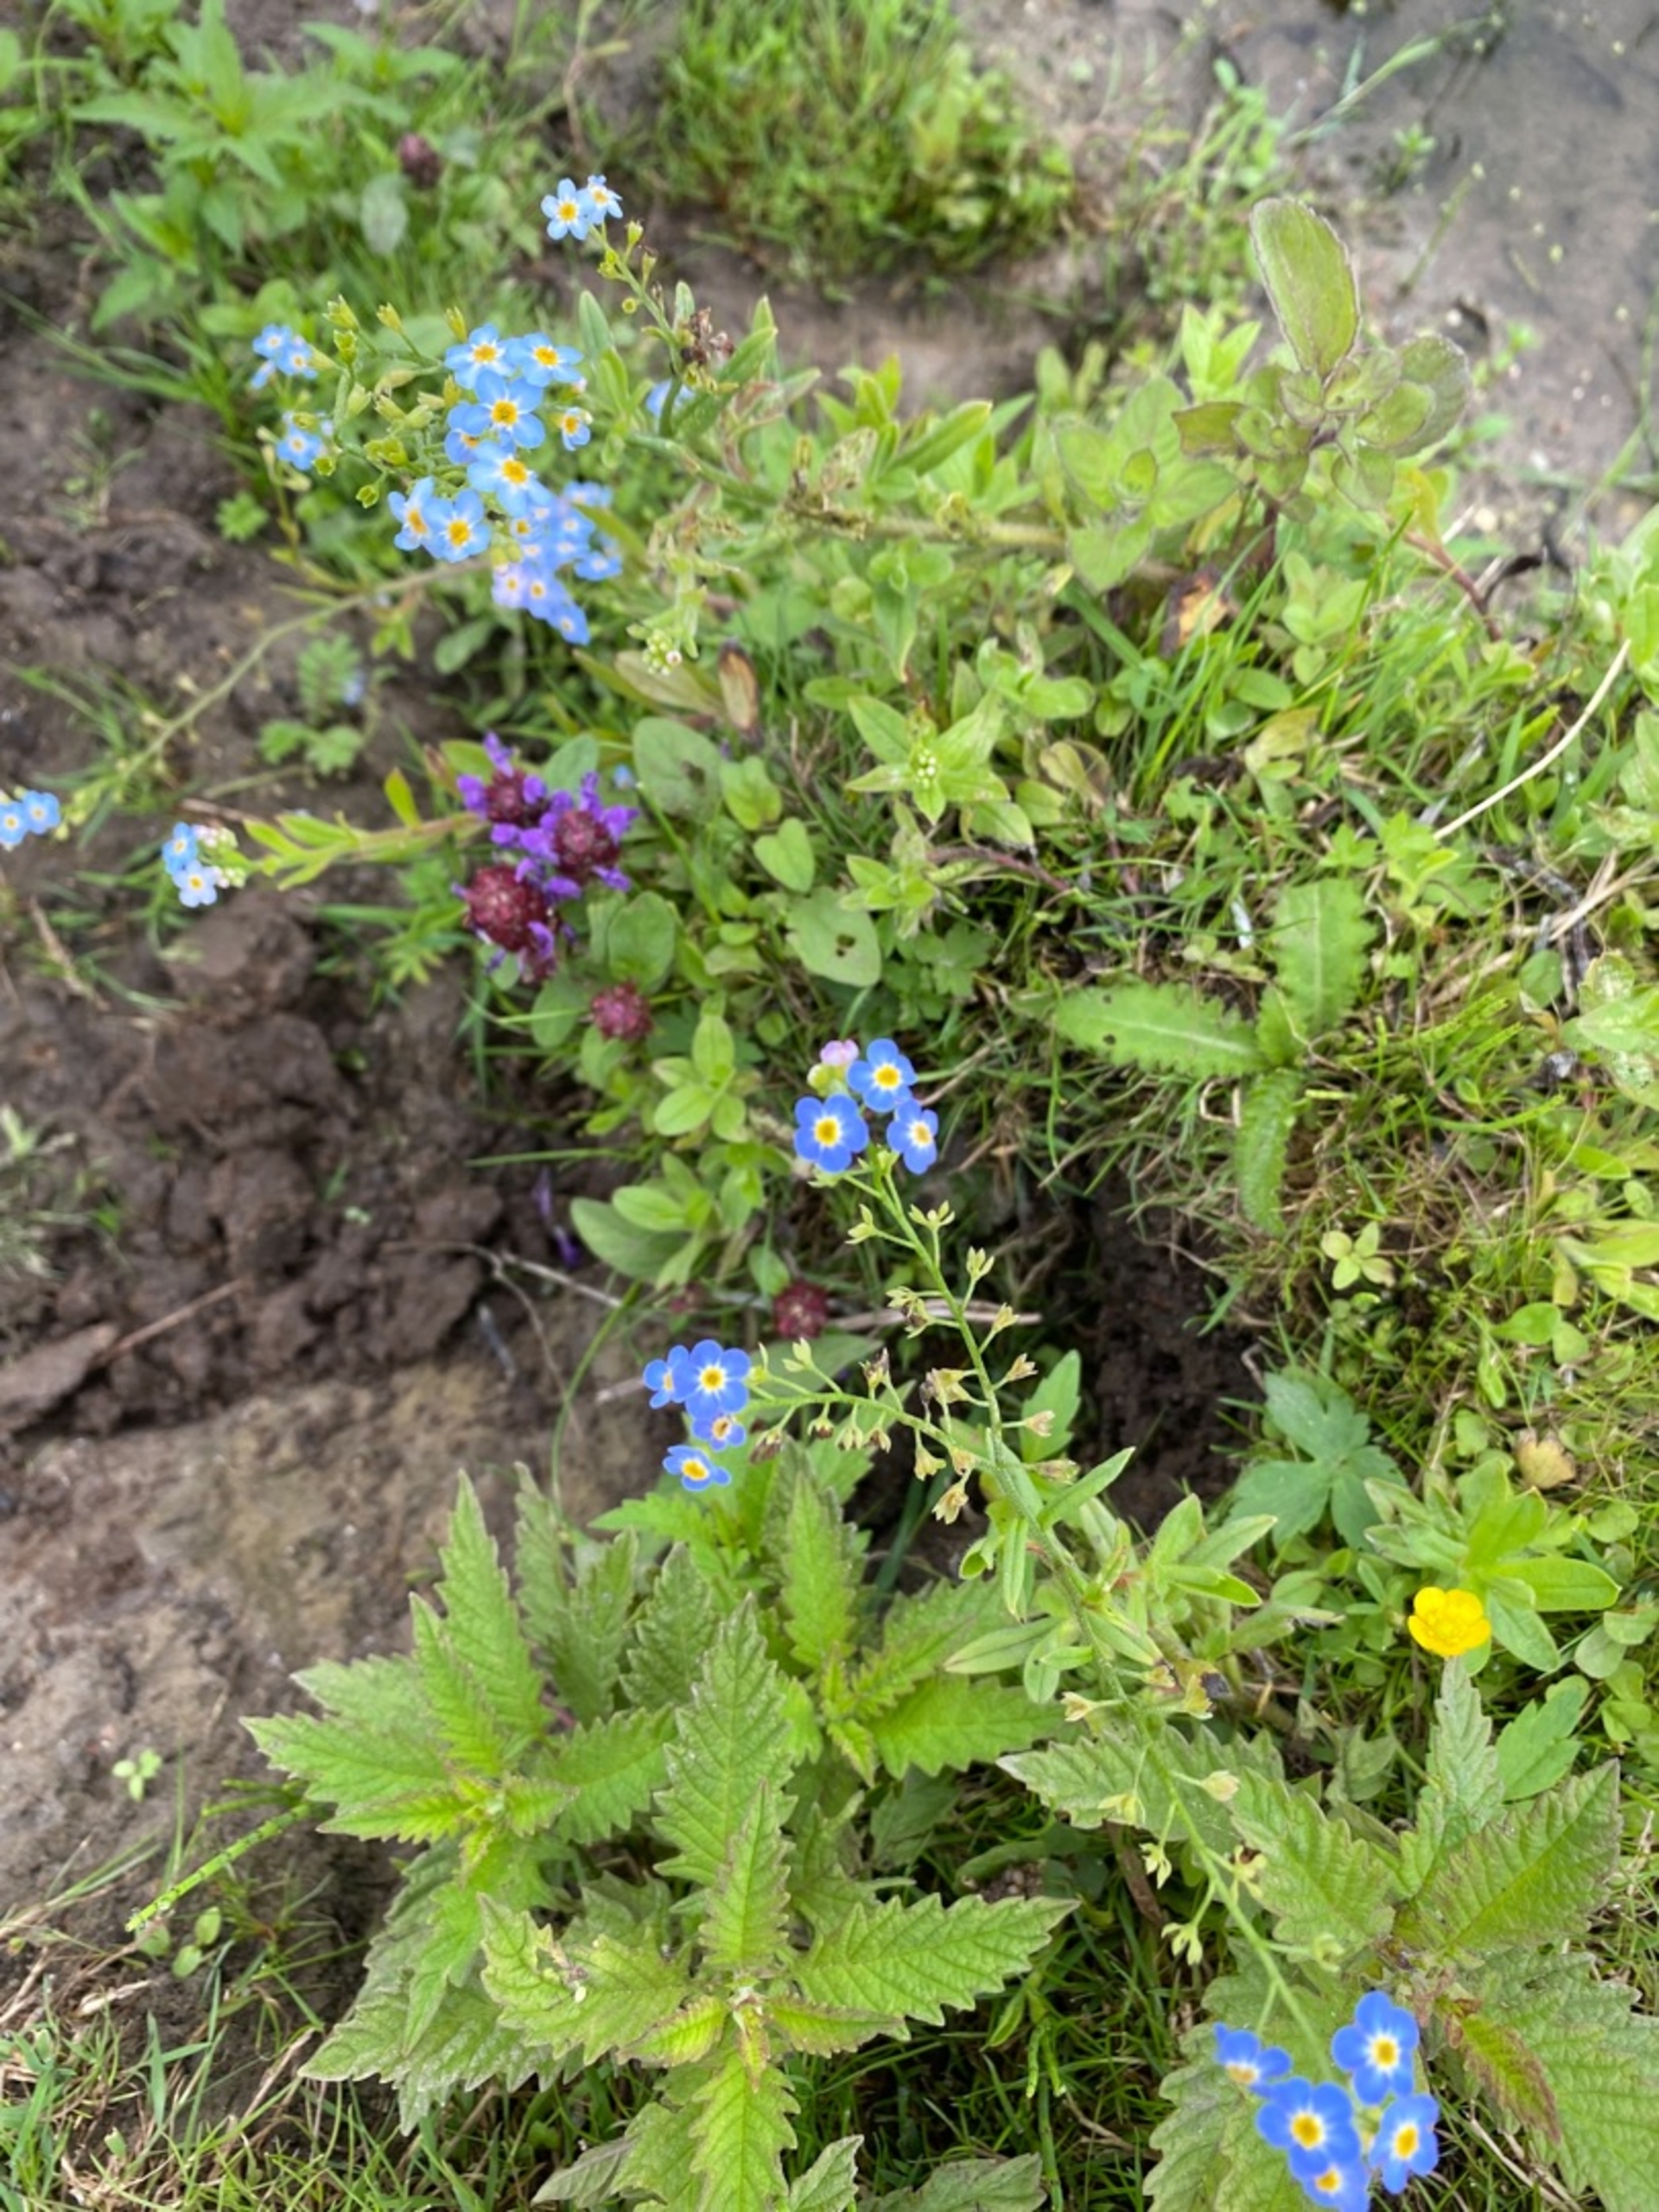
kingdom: Plantae
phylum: Tracheophyta
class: Magnoliopsida
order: Boraginales
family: Boraginaceae
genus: Cynoglossum
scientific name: Cynoglossum amabile
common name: Kinesisk hundetunge
